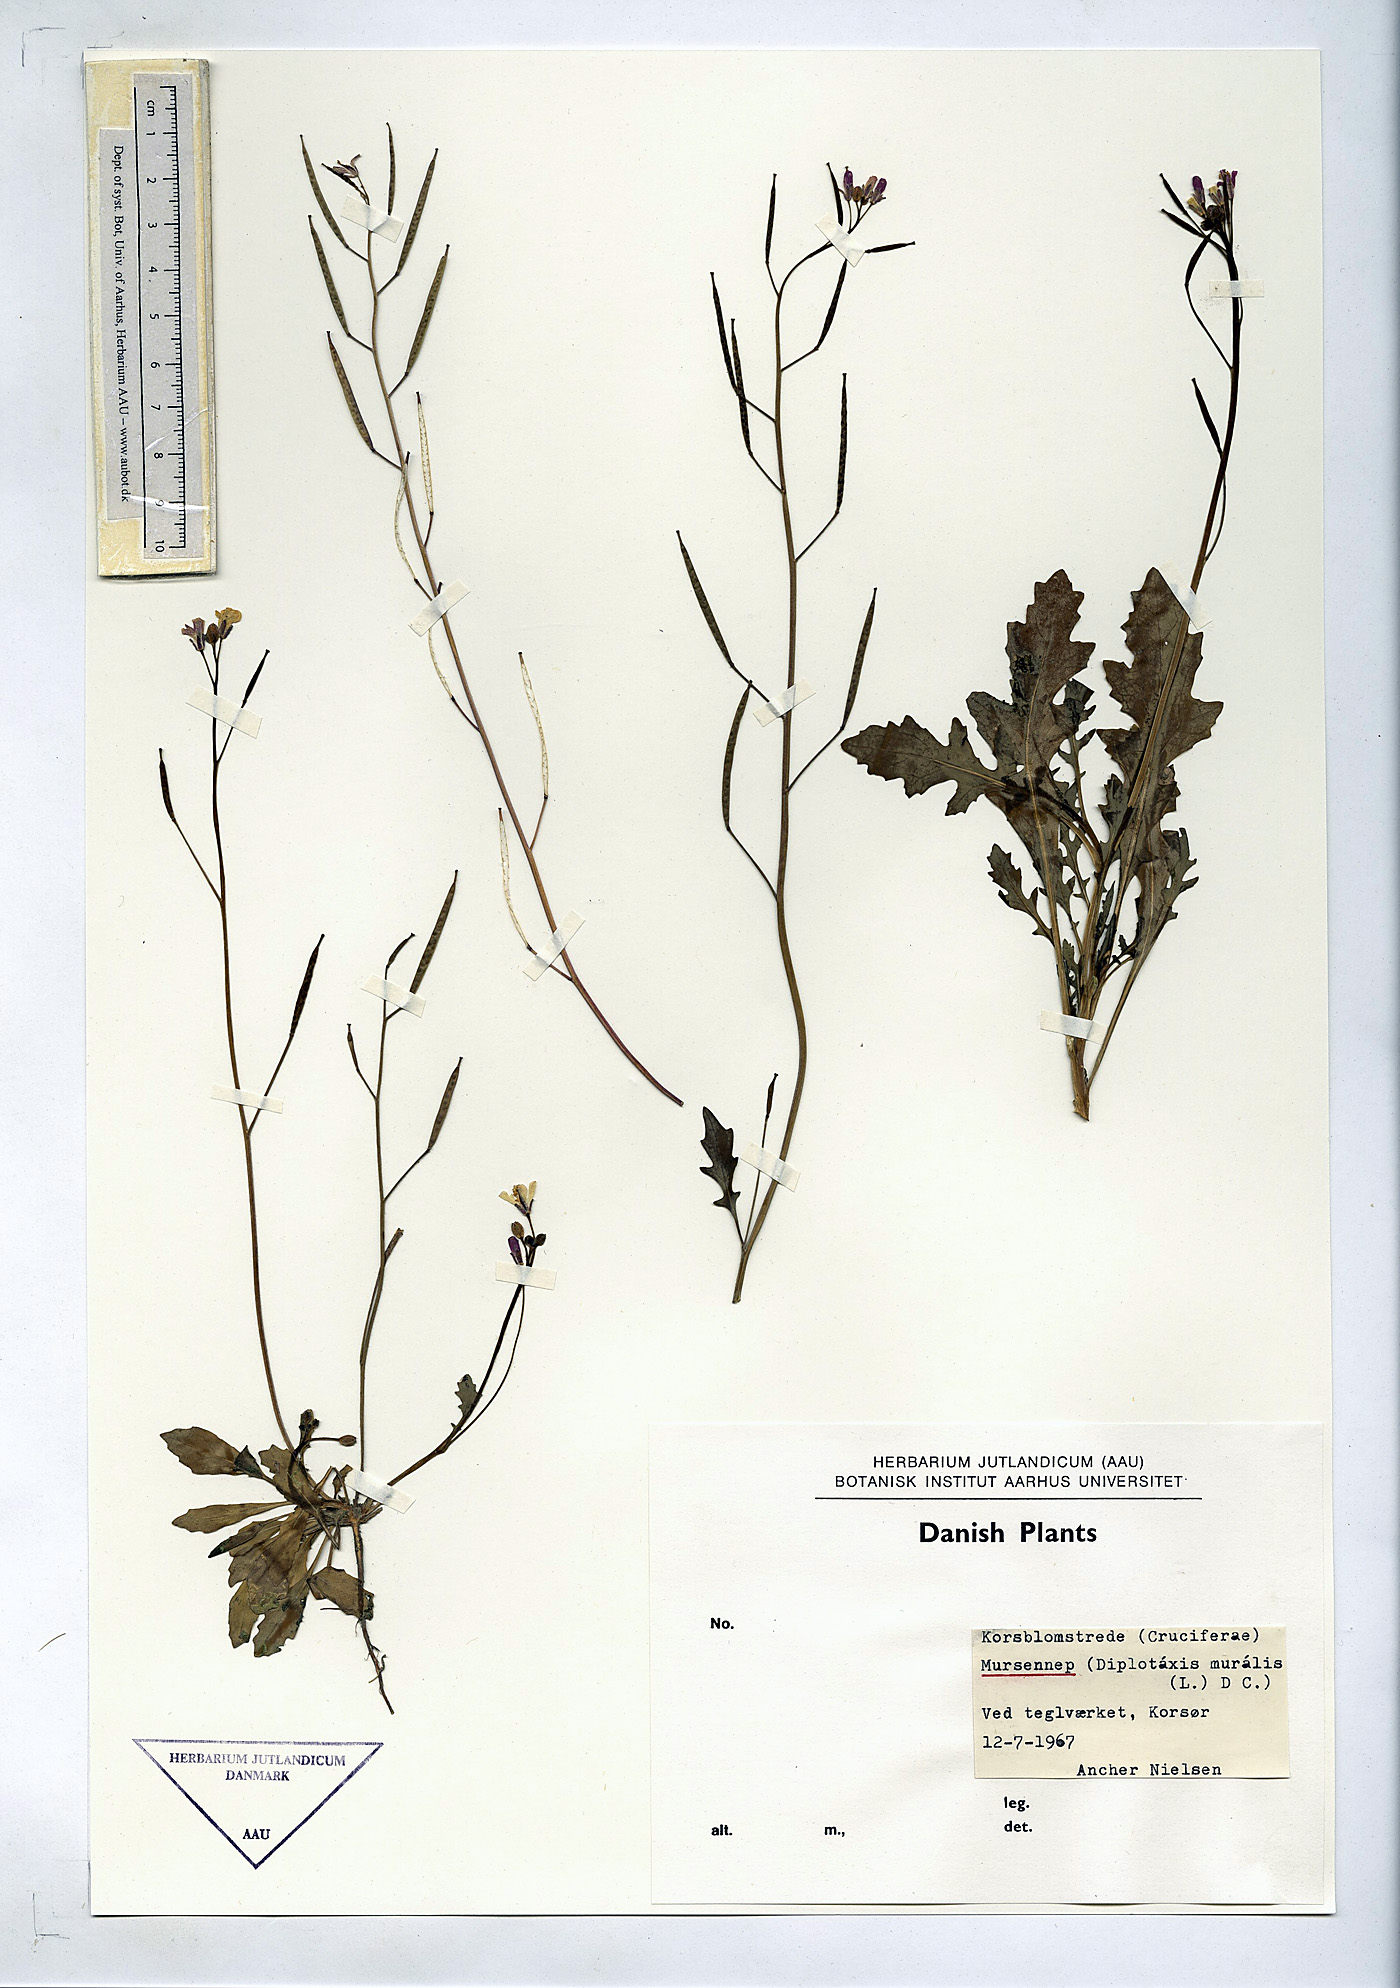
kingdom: Plantae
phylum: Tracheophyta
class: Magnoliopsida
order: Brassicales
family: Brassicaceae
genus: Diplotaxis
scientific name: Diplotaxis muralis
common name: Annual wall-rocket
